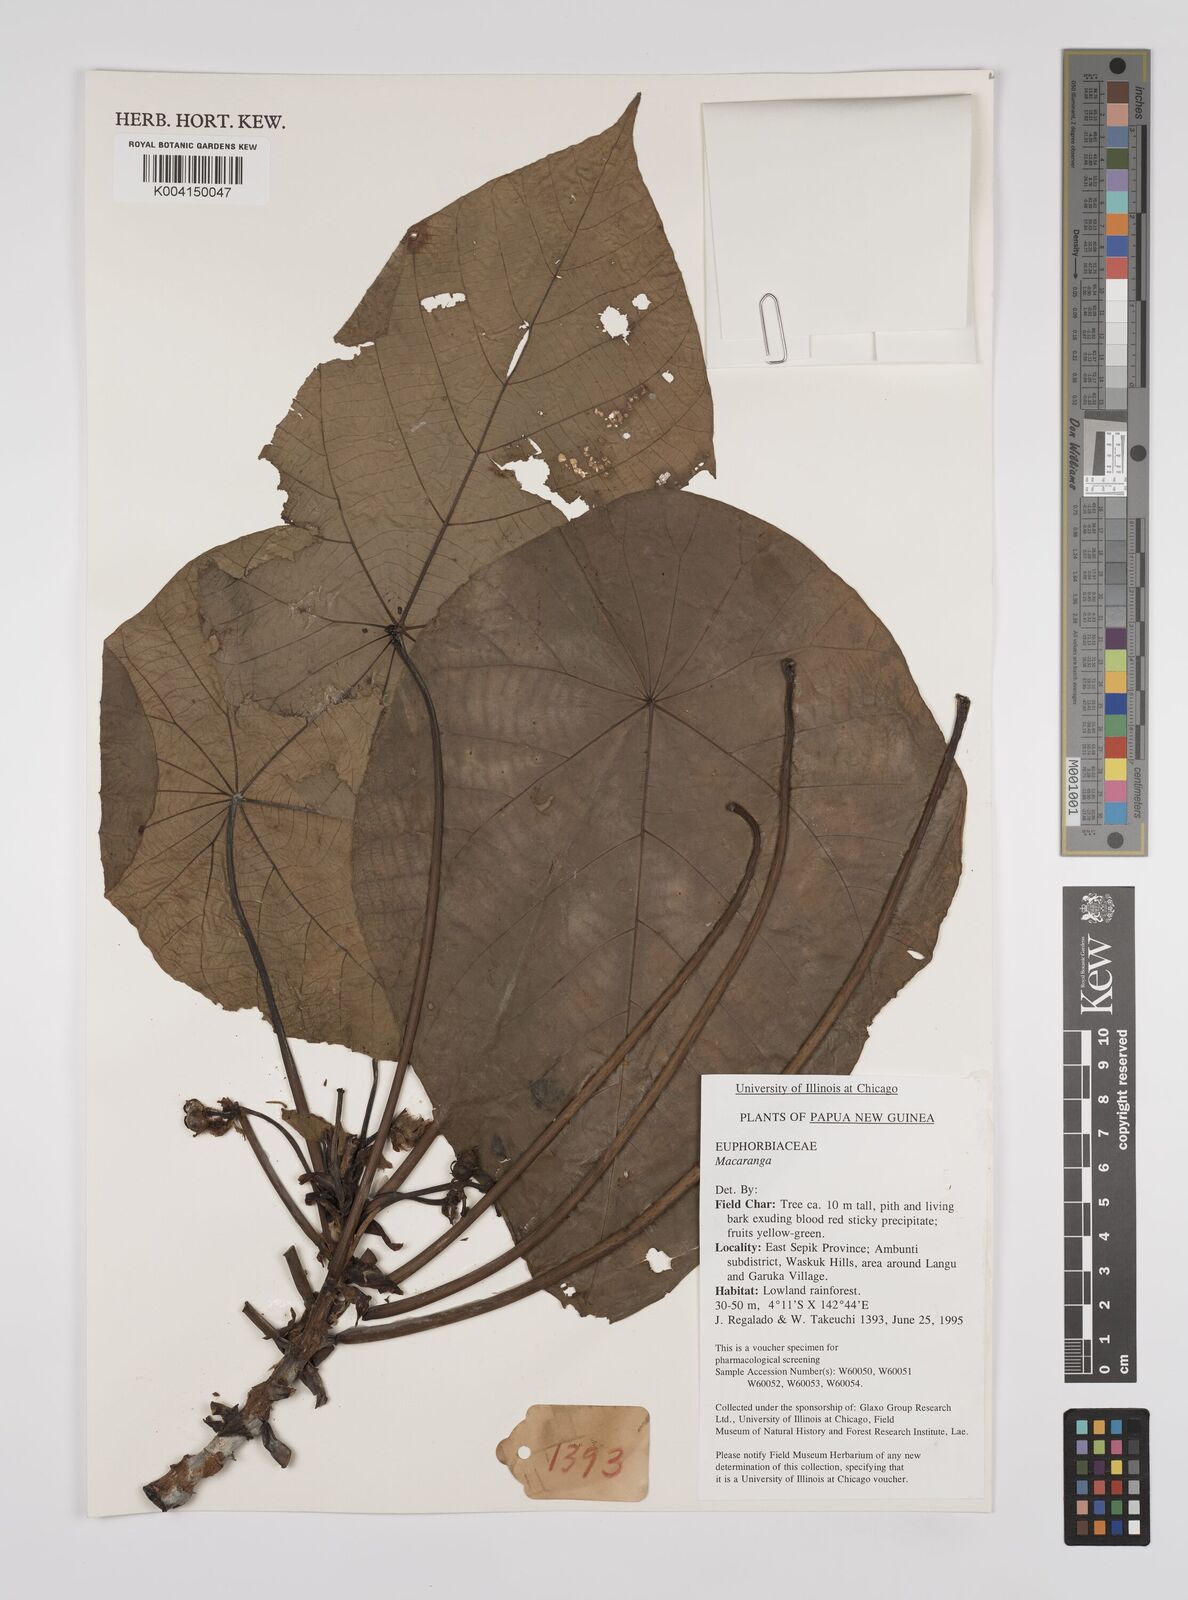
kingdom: Plantae
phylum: Tracheophyta
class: Magnoliopsida
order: Malpighiales
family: Euphorbiaceae
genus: Macaranga
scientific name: Macaranga
